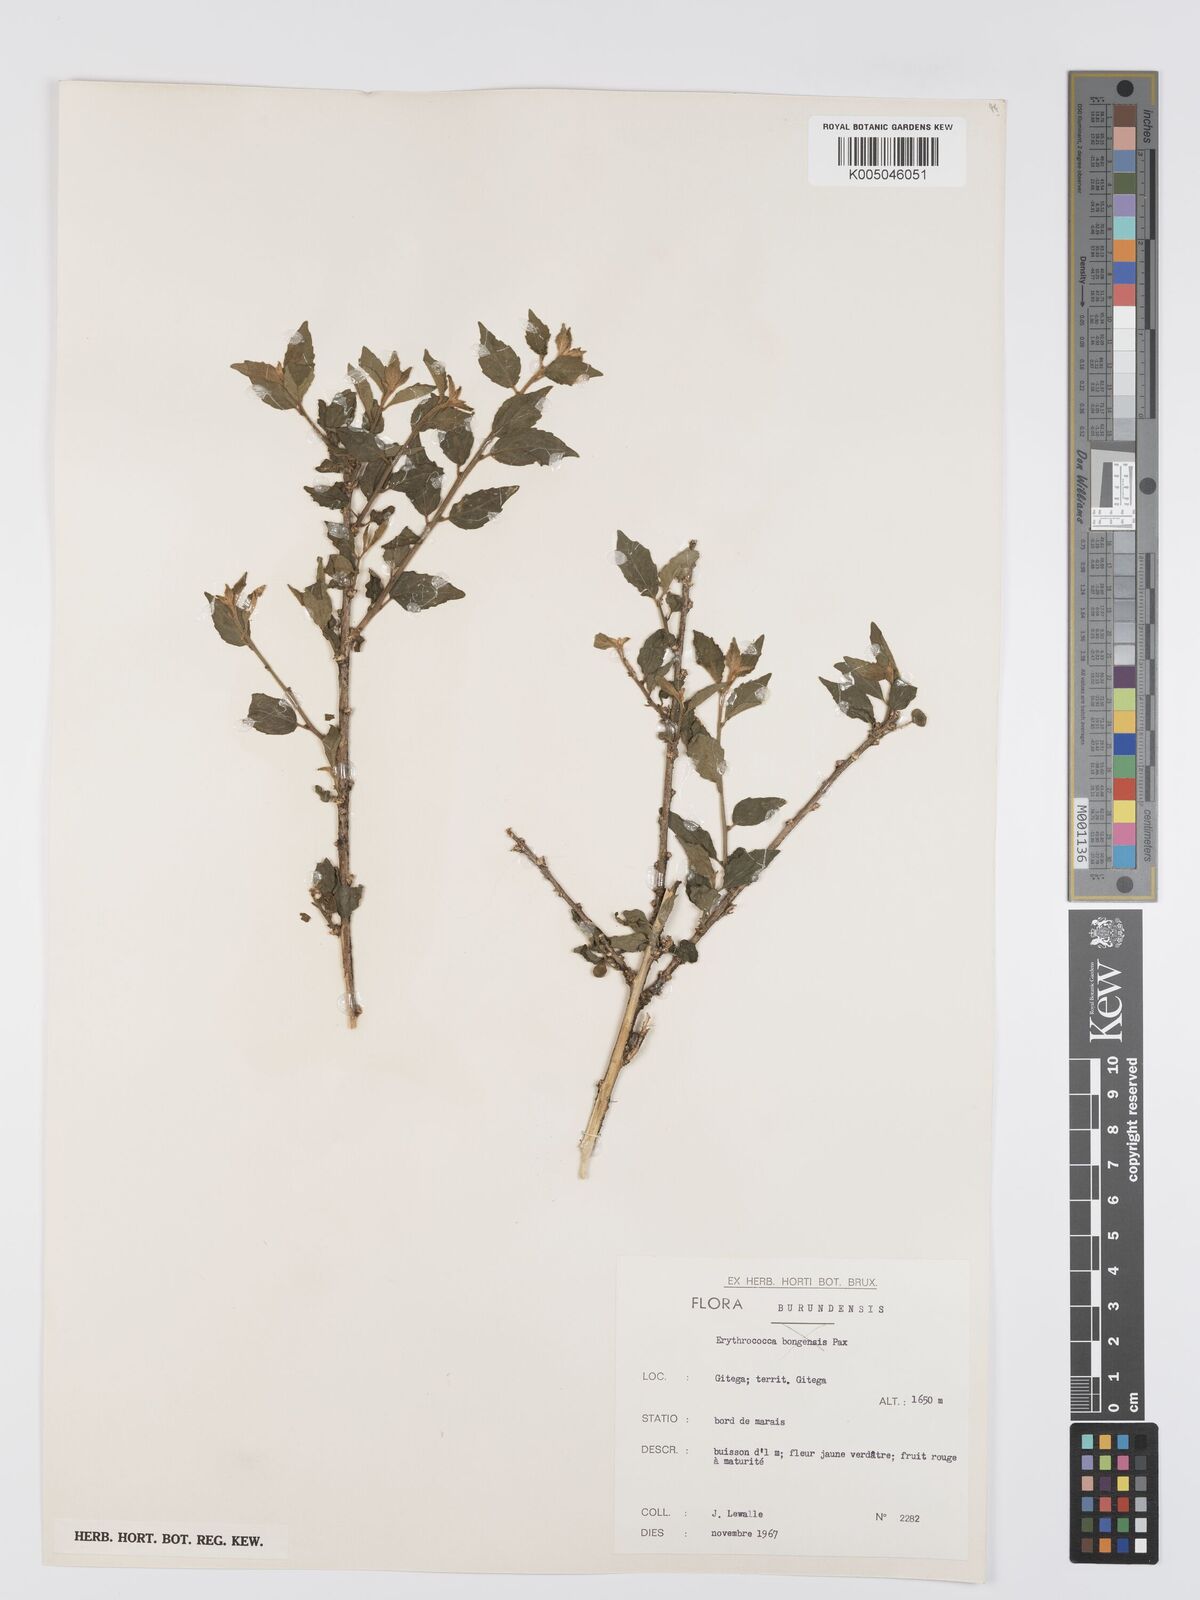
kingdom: Plantae
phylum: Tracheophyta
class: Magnoliopsida
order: Malpighiales
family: Euphorbiaceae
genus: Erythrococca
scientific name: Erythrococca
